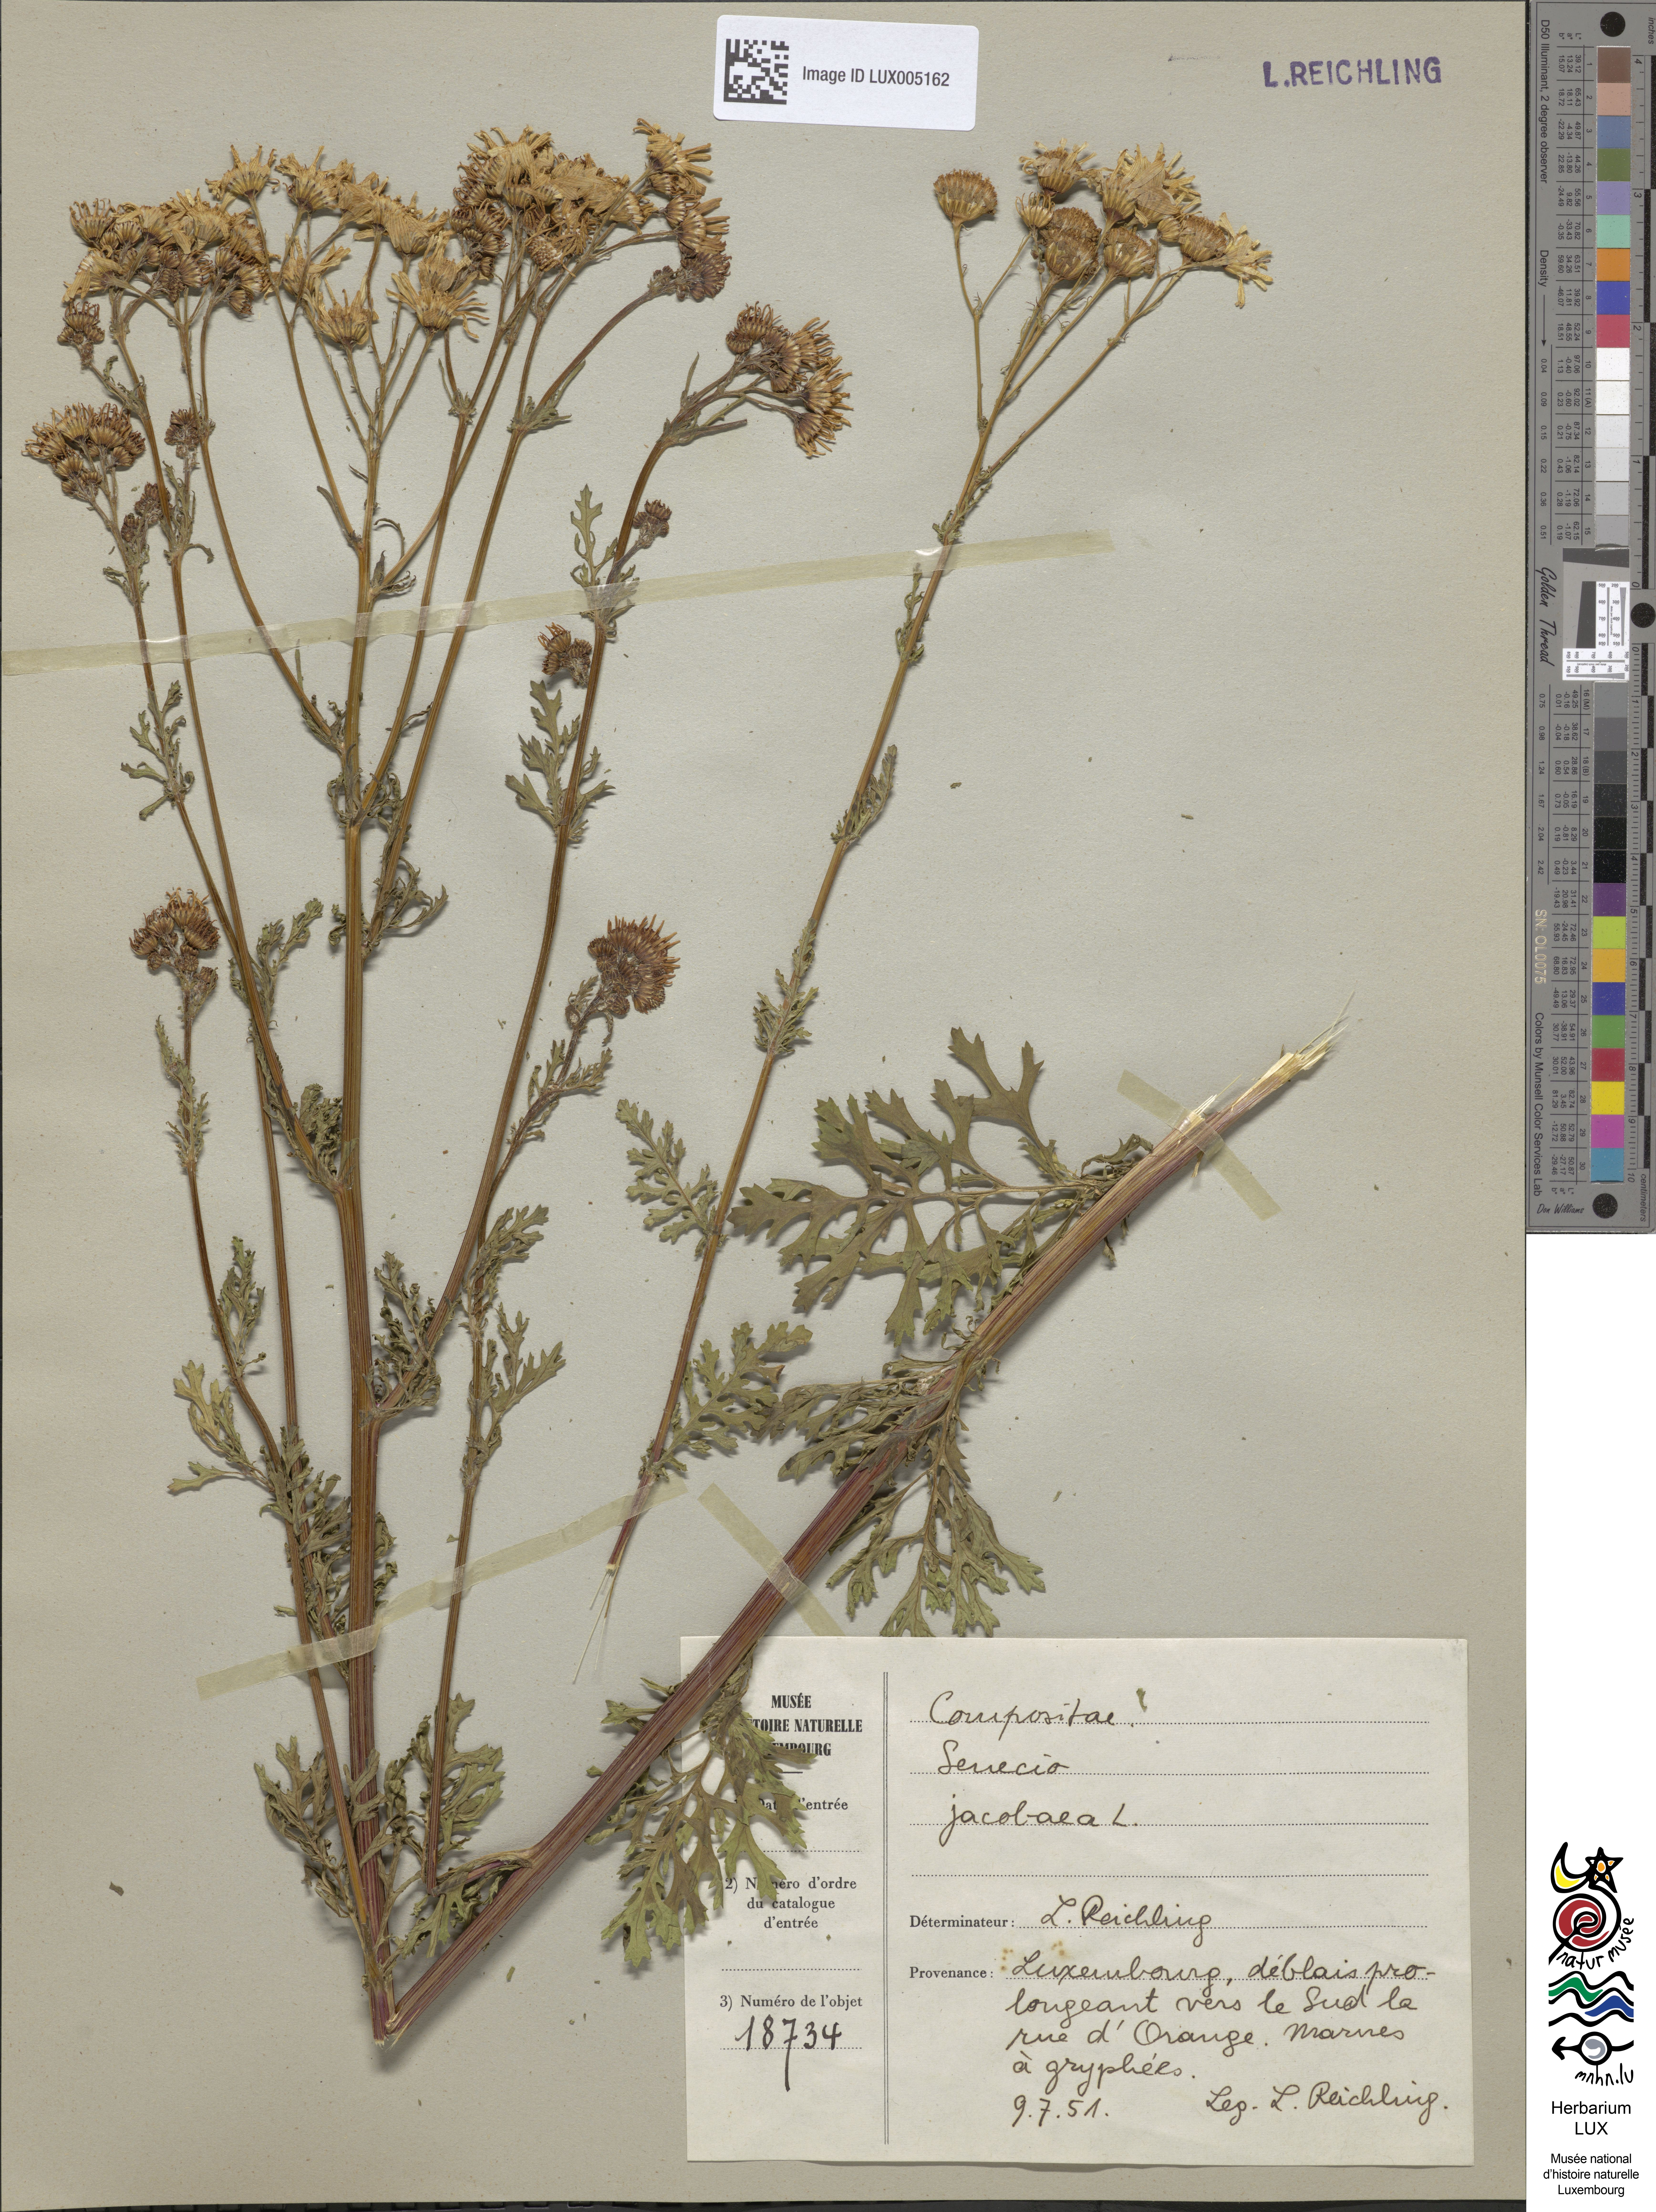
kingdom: Plantae
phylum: Tracheophyta
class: Magnoliopsida
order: Asterales
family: Asteraceae
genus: Jacobaea
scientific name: Jacobaea vulgaris
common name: Stinking willie
